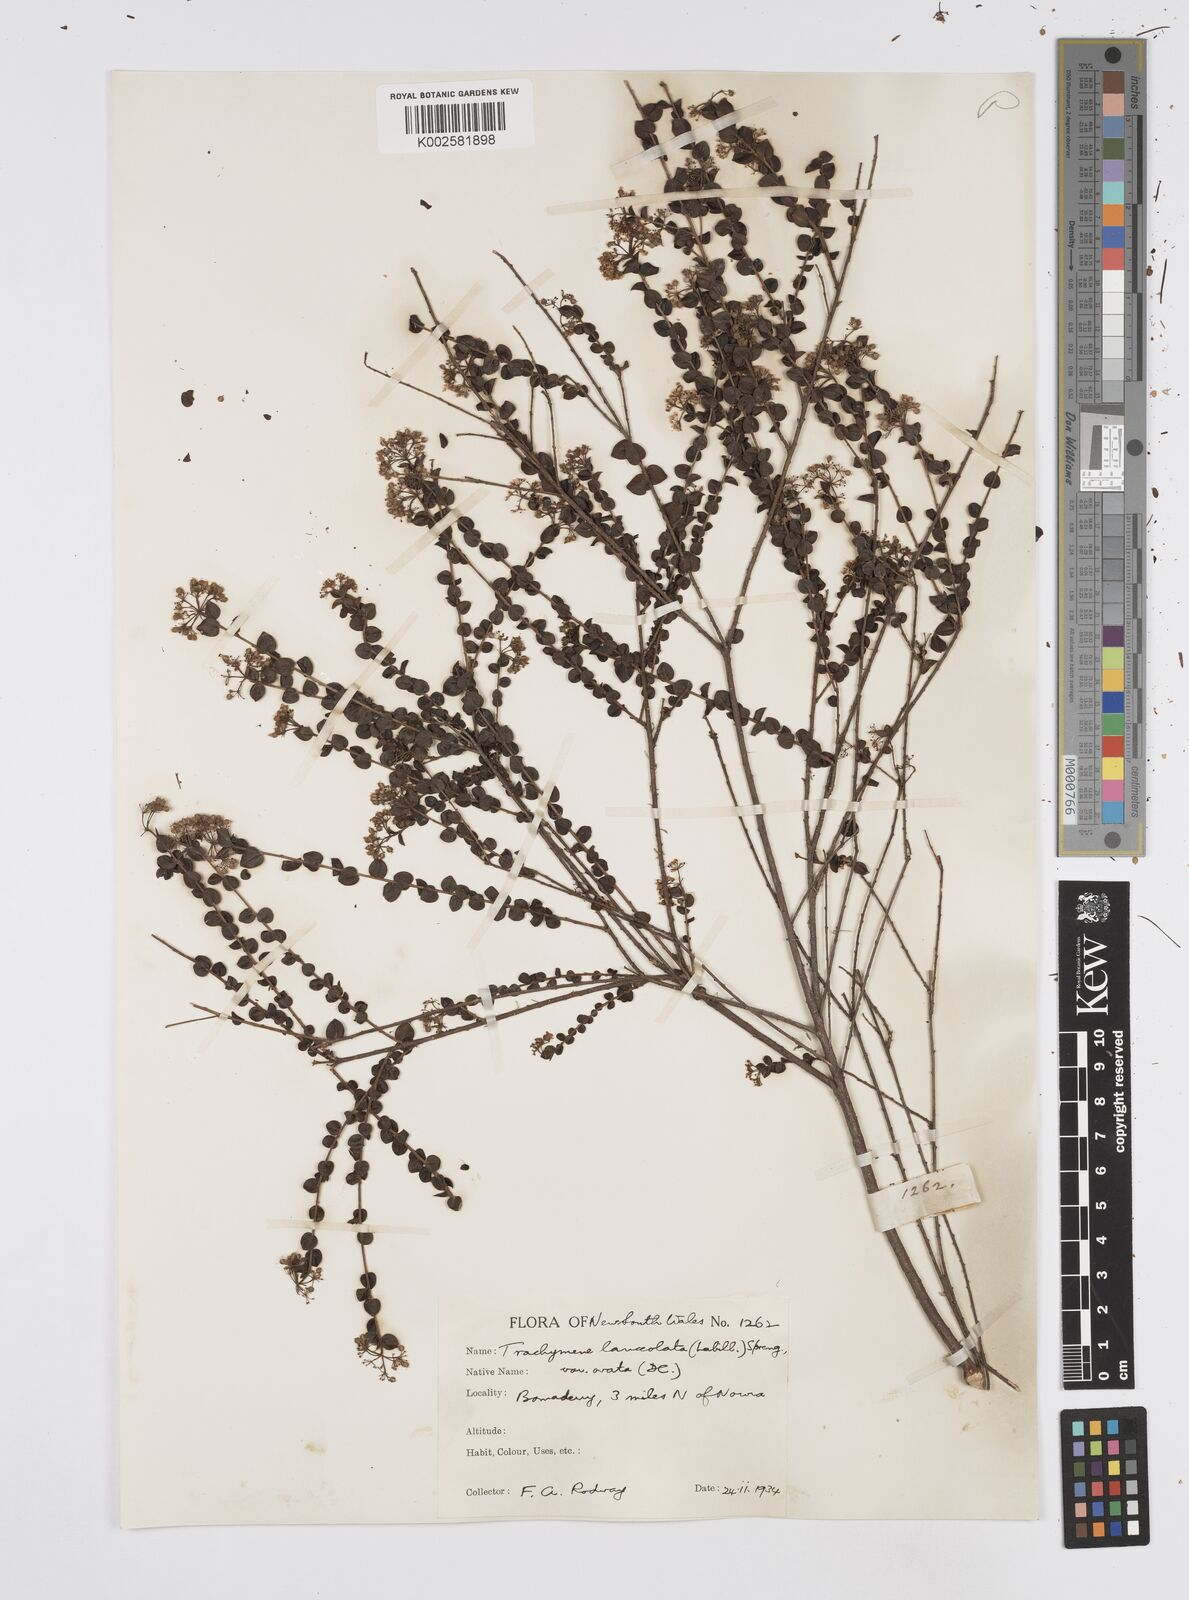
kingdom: Plantae
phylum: Tracheophyta
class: Magnoliopsida
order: Apiales
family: Apiaceae
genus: Platysace
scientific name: Platysace lanceolata
